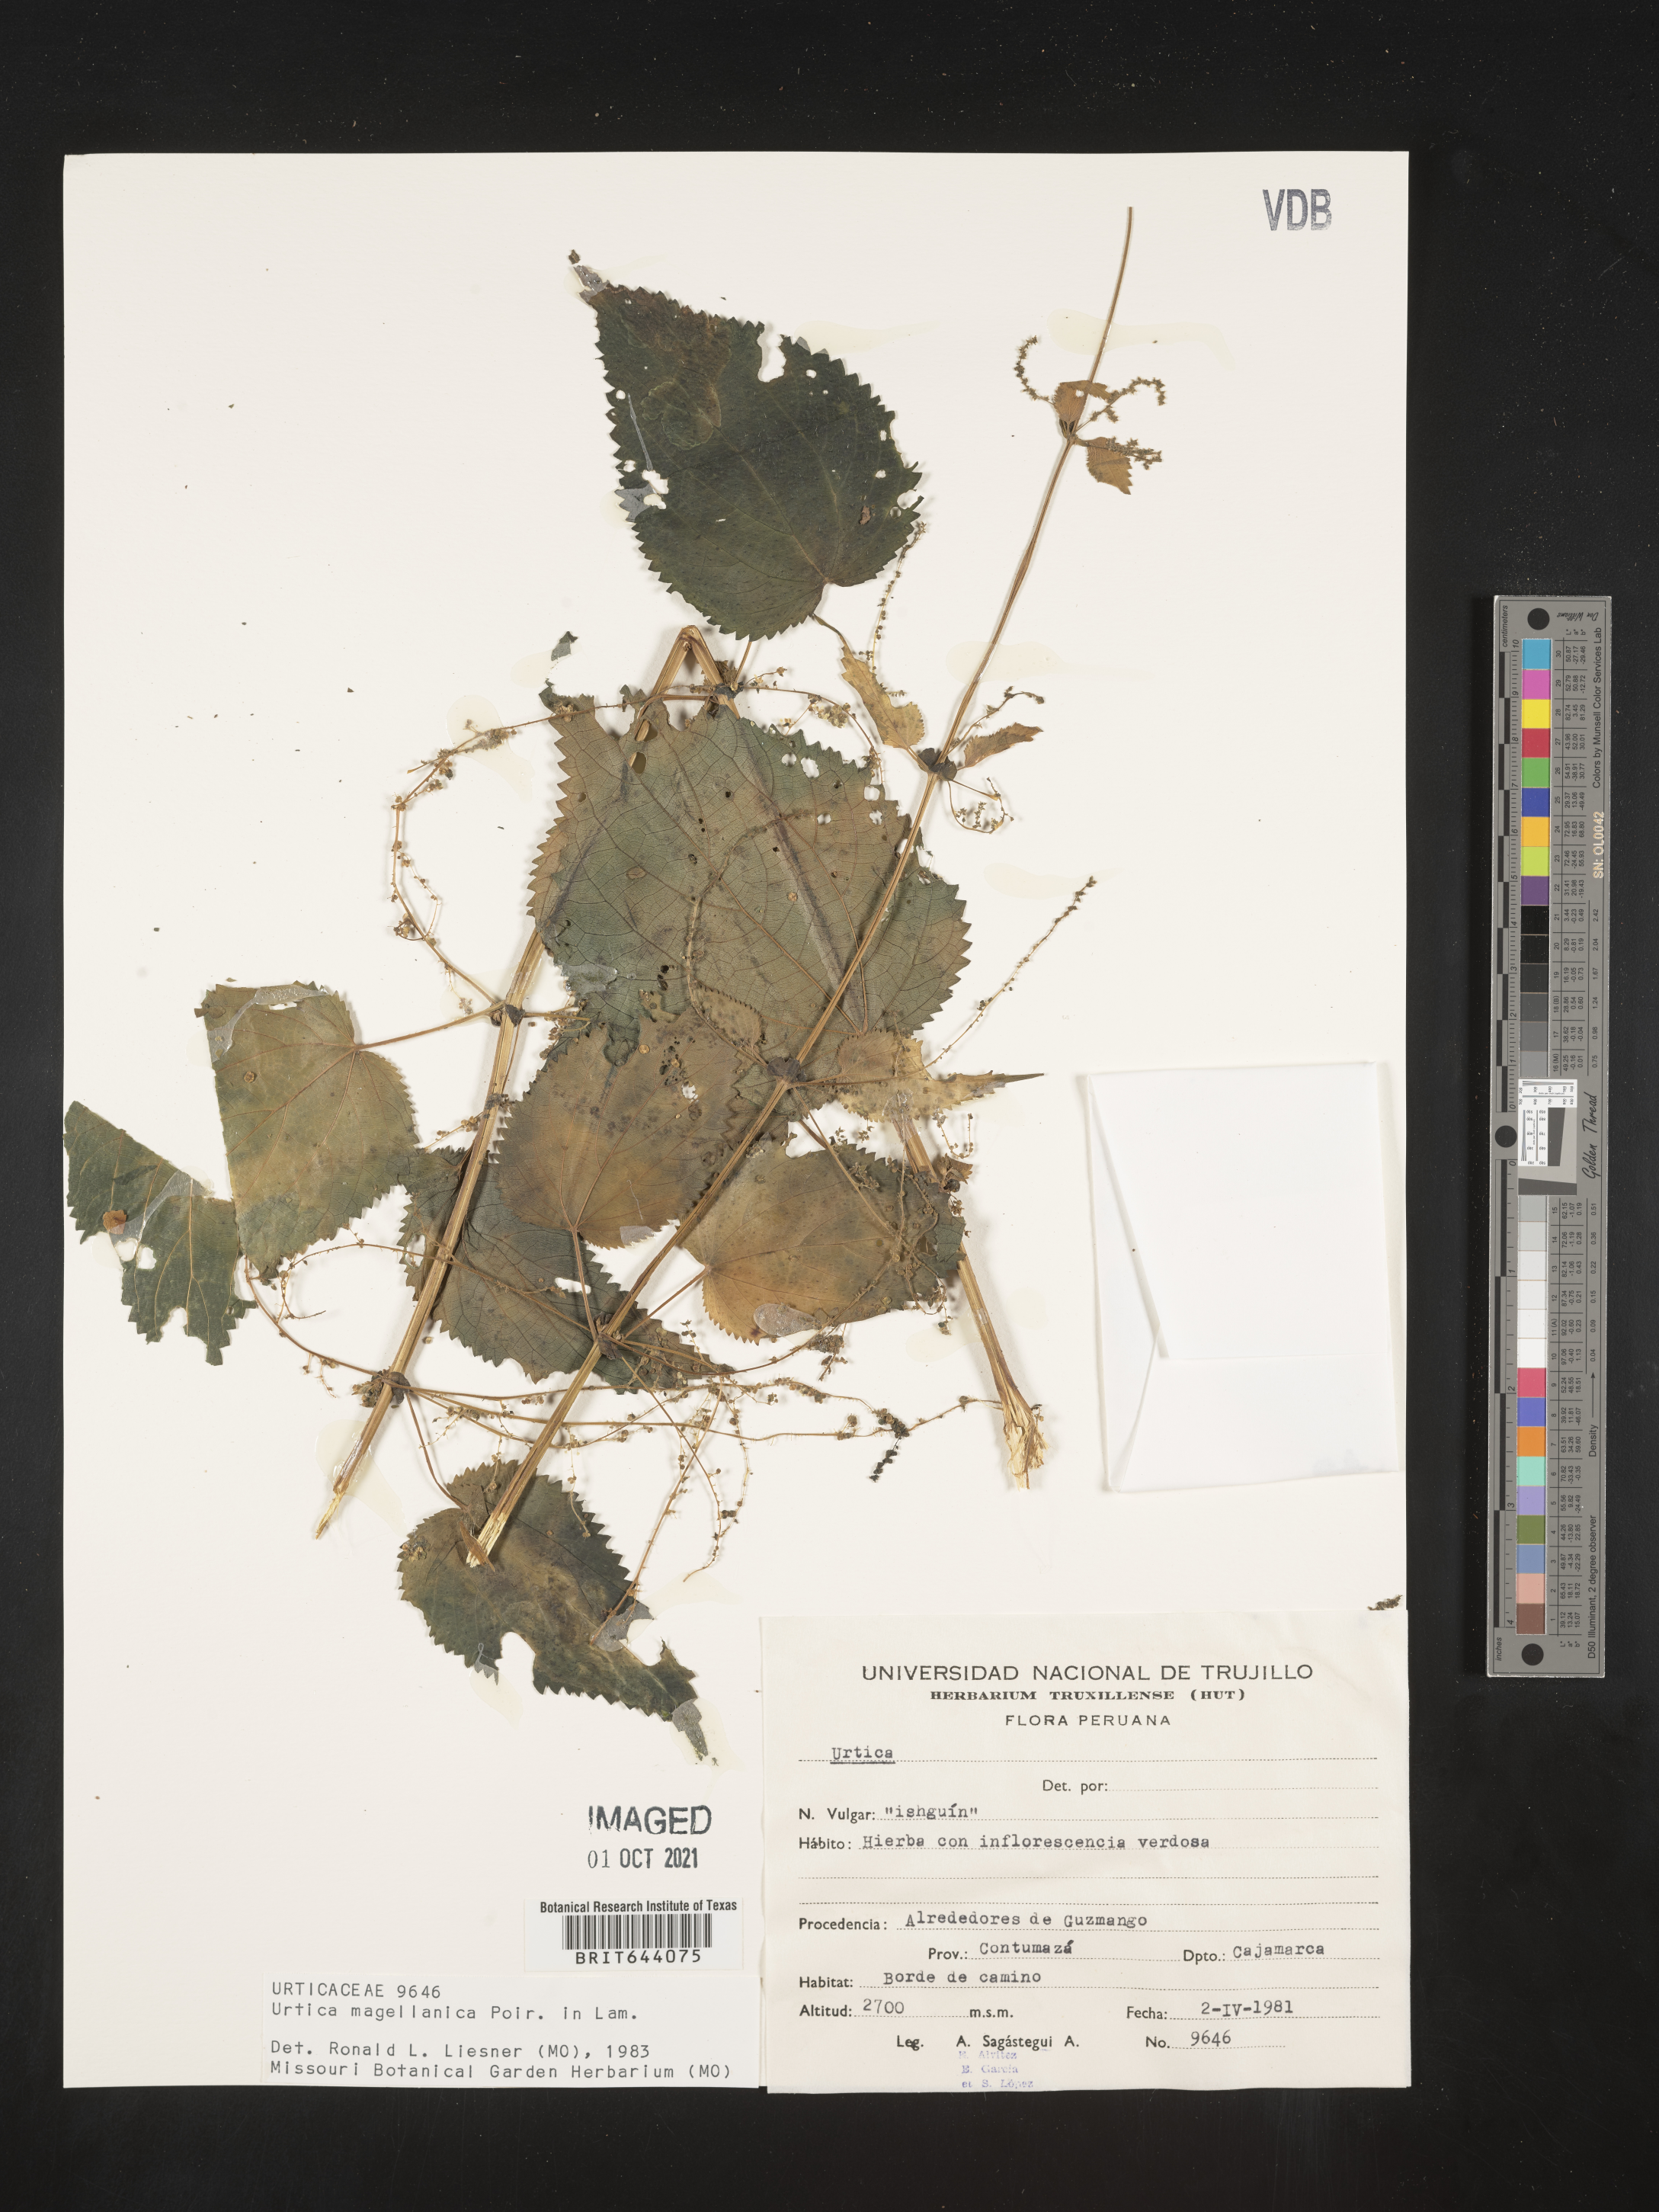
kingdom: Plantae
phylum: Tracheophyta
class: Magnoliopsida
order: Rosales
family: Urticaceae
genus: Urtica
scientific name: Urtica
